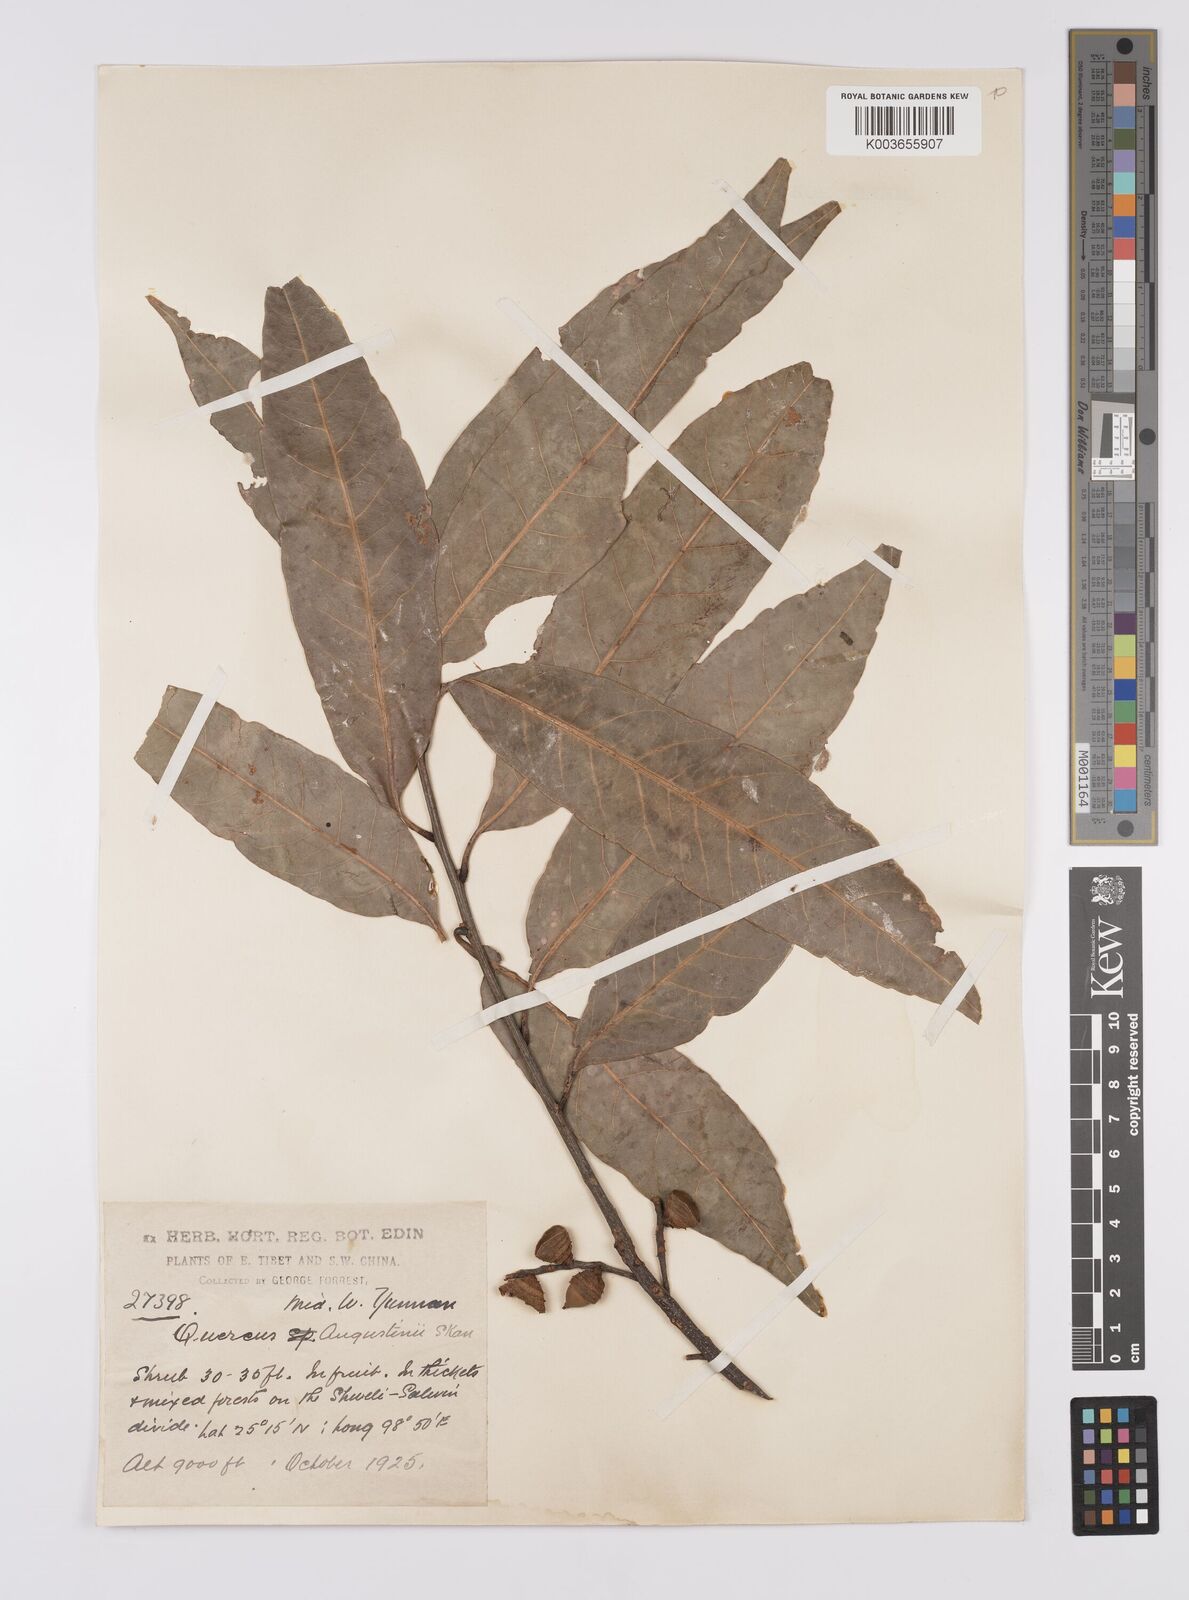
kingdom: Plantae
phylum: Tracheophyta
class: Magnoliopsida
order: Fagales
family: Fagaceae
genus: Quercus
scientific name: Quercus augustini
